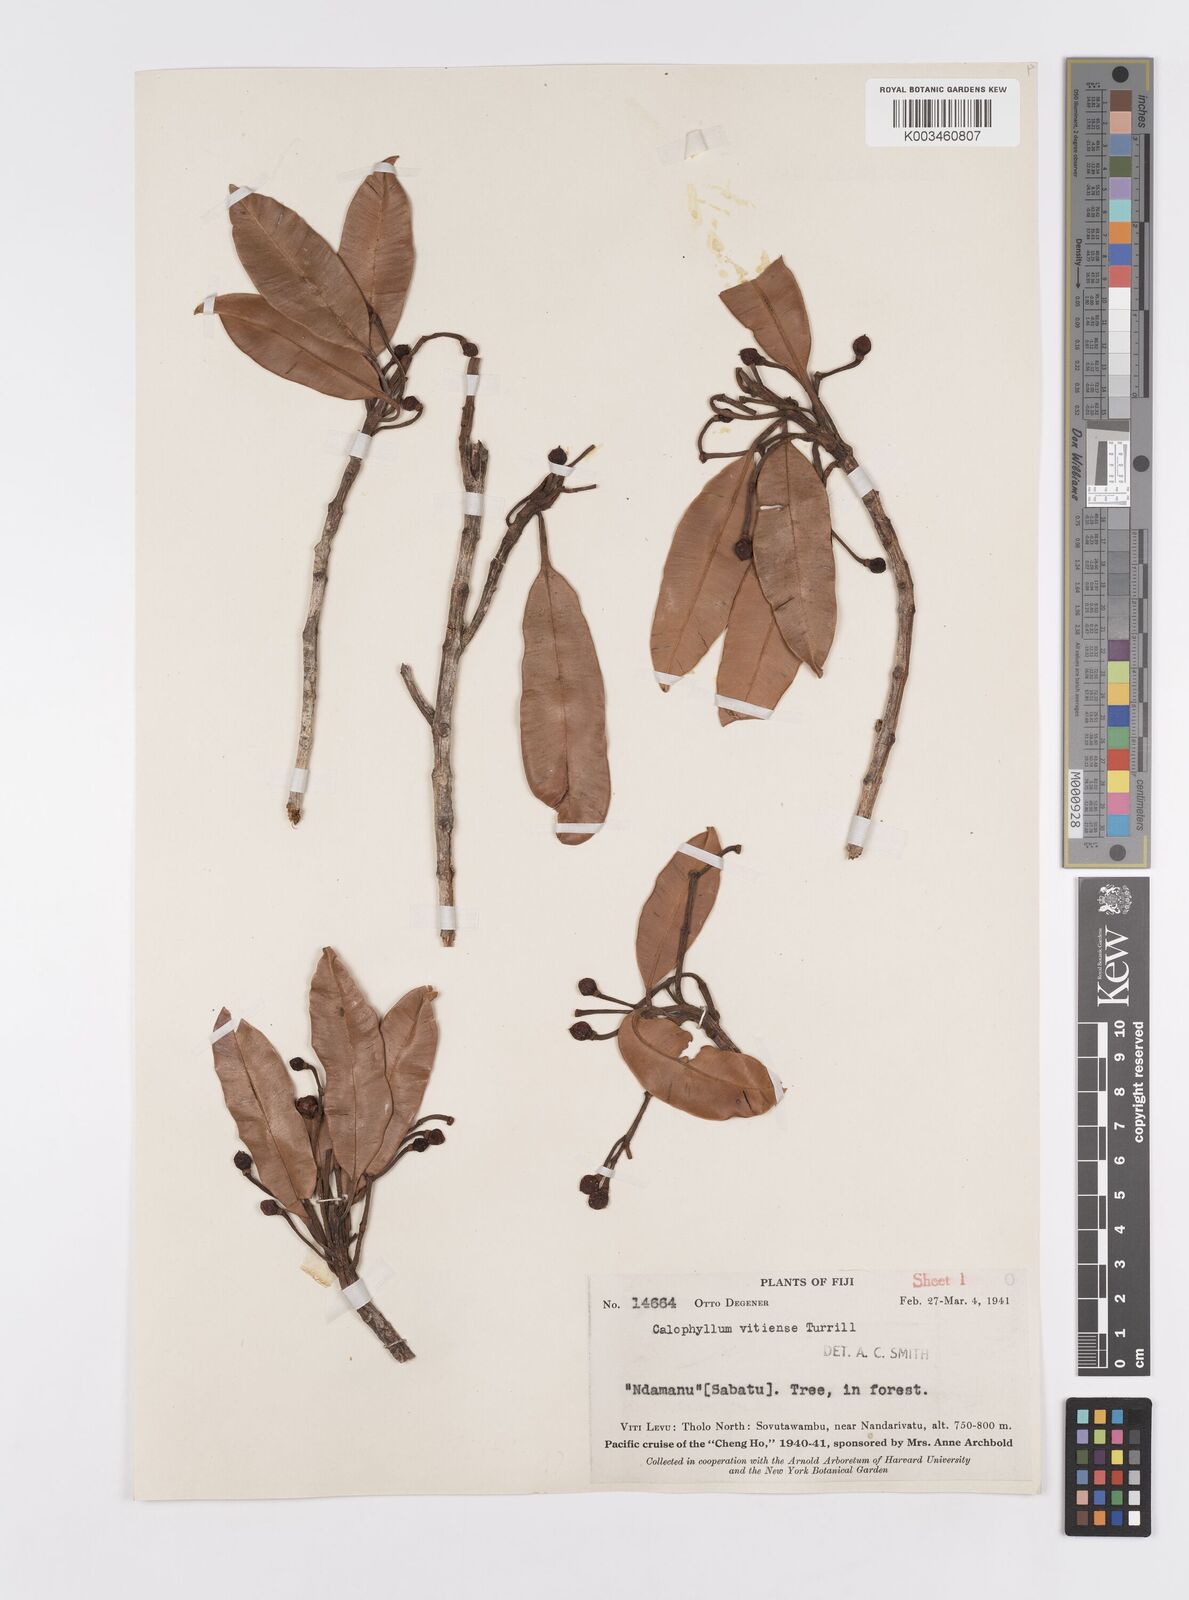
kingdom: Plantae
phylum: Tracheophyta
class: Magnoliopsida
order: Malpighiales
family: Calophyllaceae
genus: Calophyllum
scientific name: Calophyllum cerasiferum
